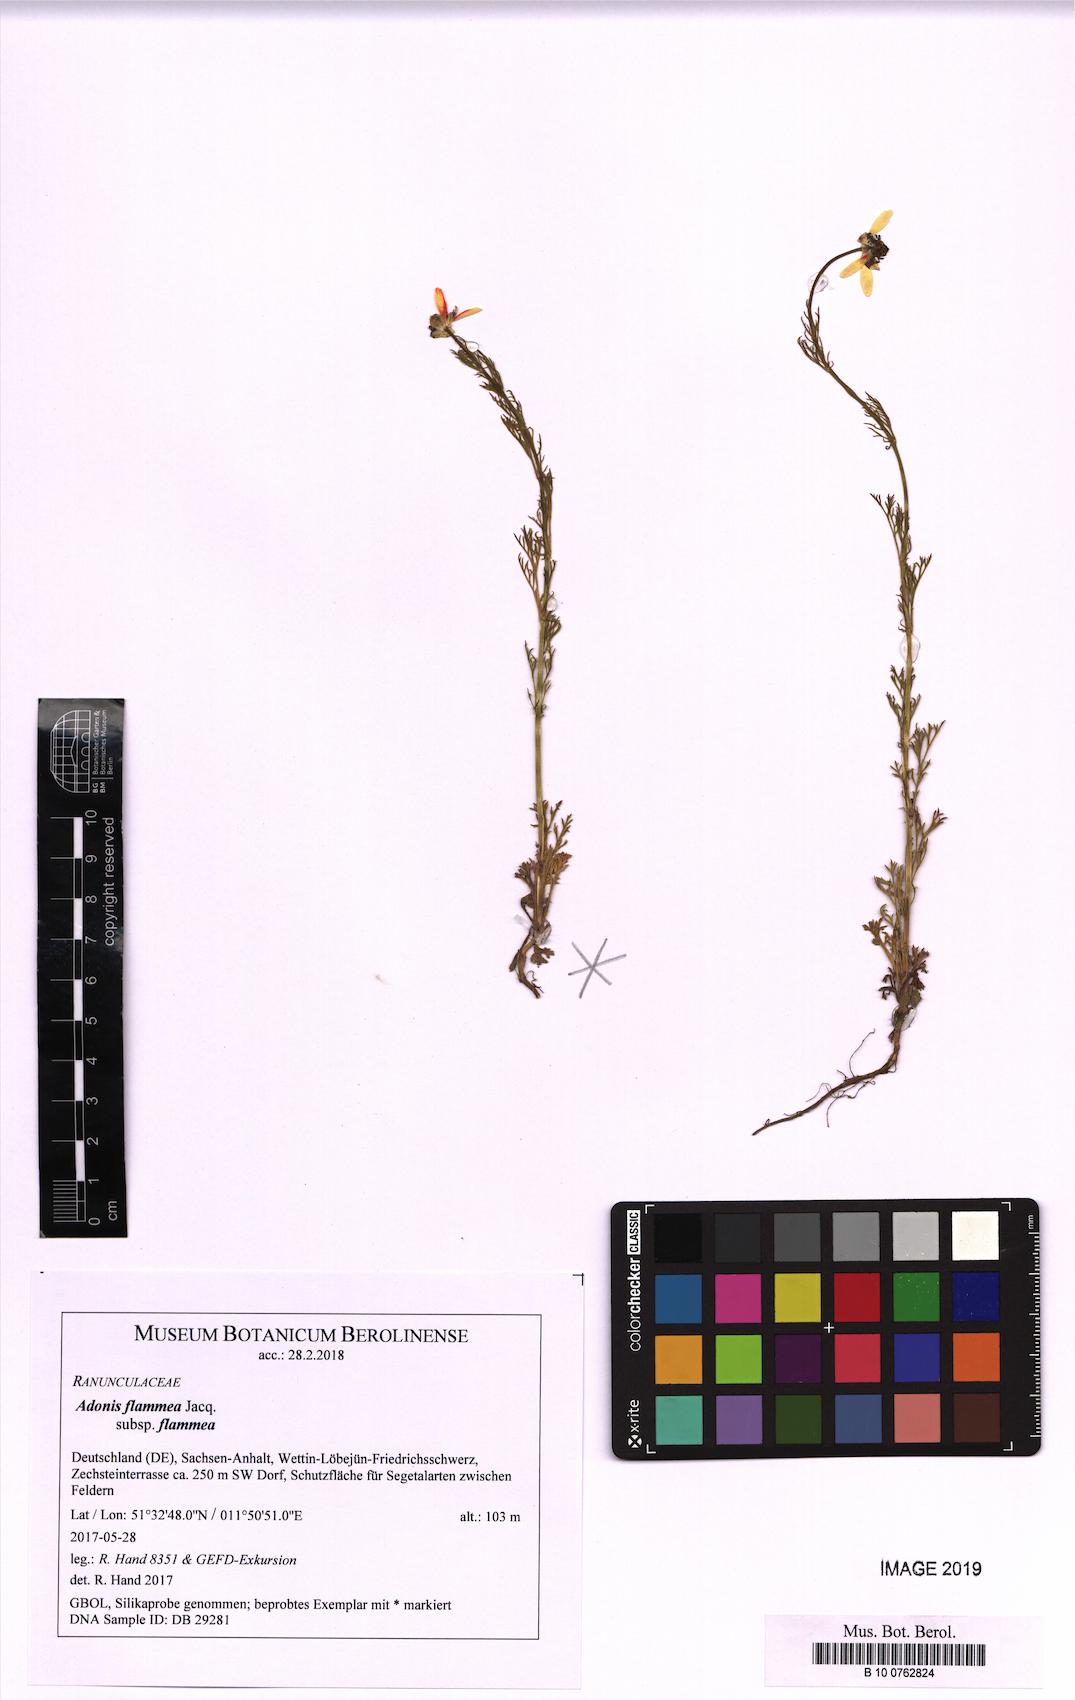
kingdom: Plantae
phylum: Tracheophyta
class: Magnoliopsida
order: Ranunculales
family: Ranunculaceae
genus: Adonis
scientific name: Adonis flammea
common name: Large pheasant's-eye
